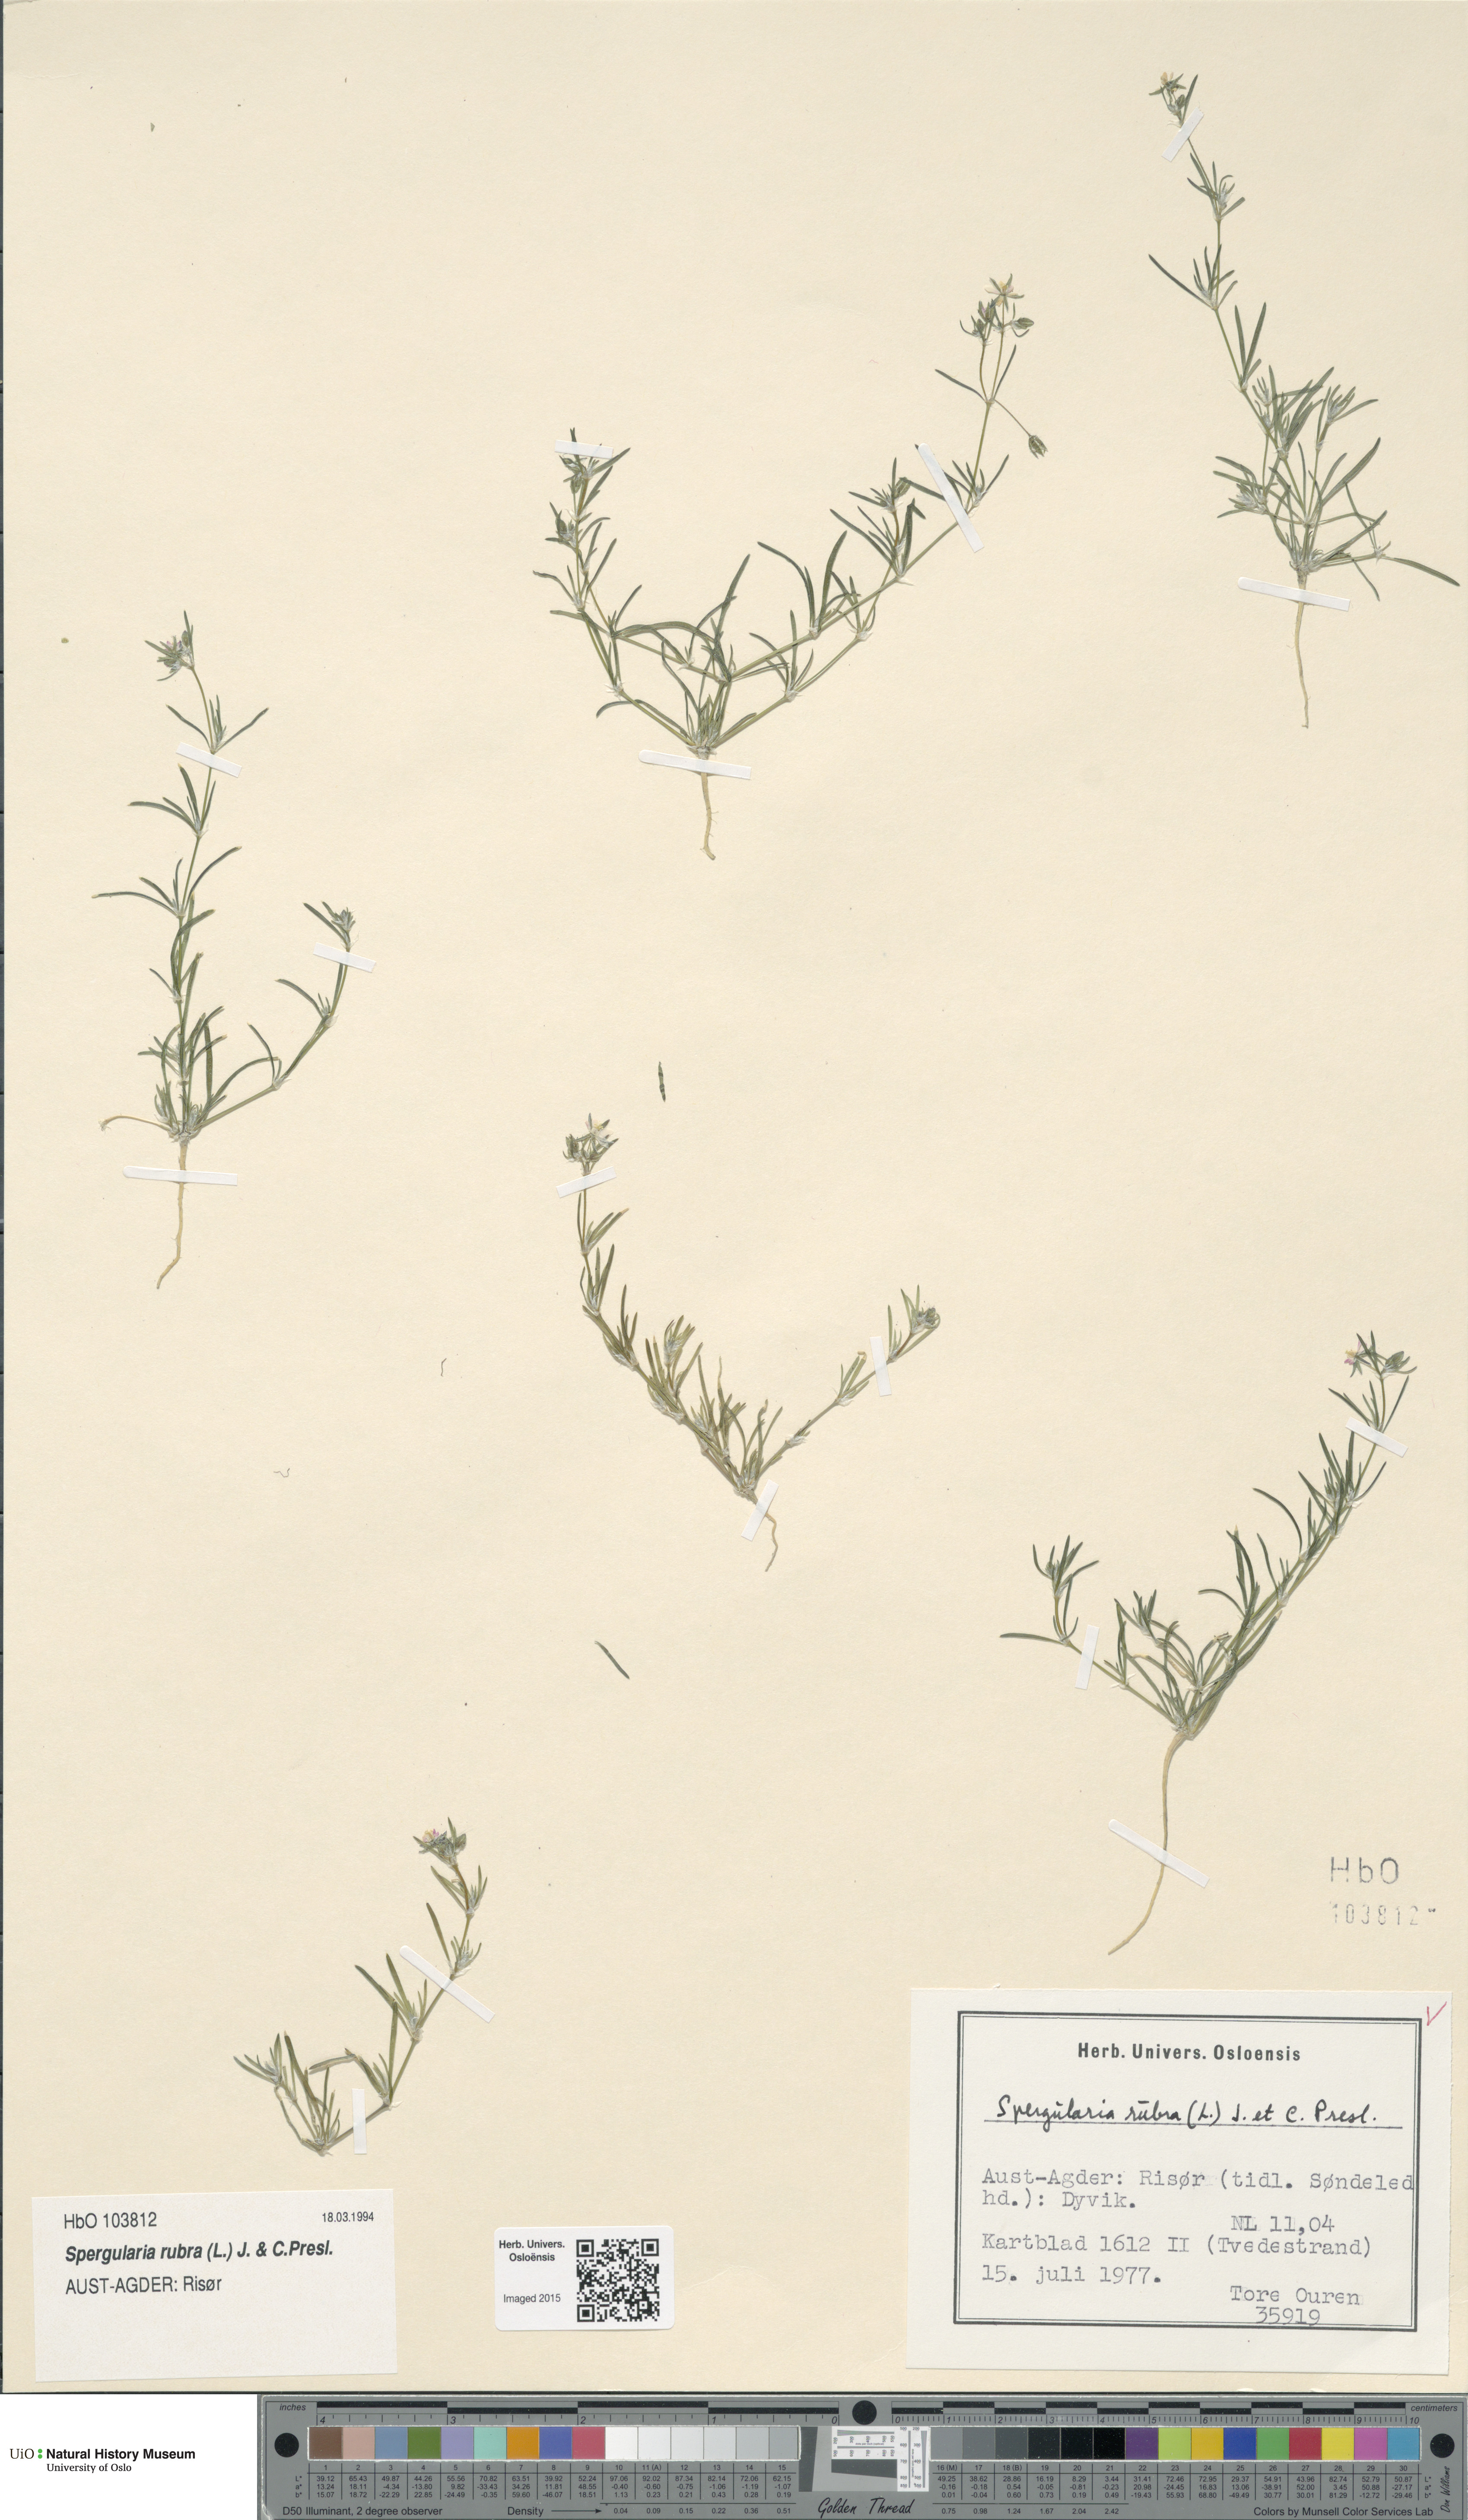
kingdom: Plantae
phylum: Tracheophyta
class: Magnoliopsida
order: Caryophyllales
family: Caryophyllaceae
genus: Spergularia
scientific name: Spergularia rubra
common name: Red sand-spurrey
